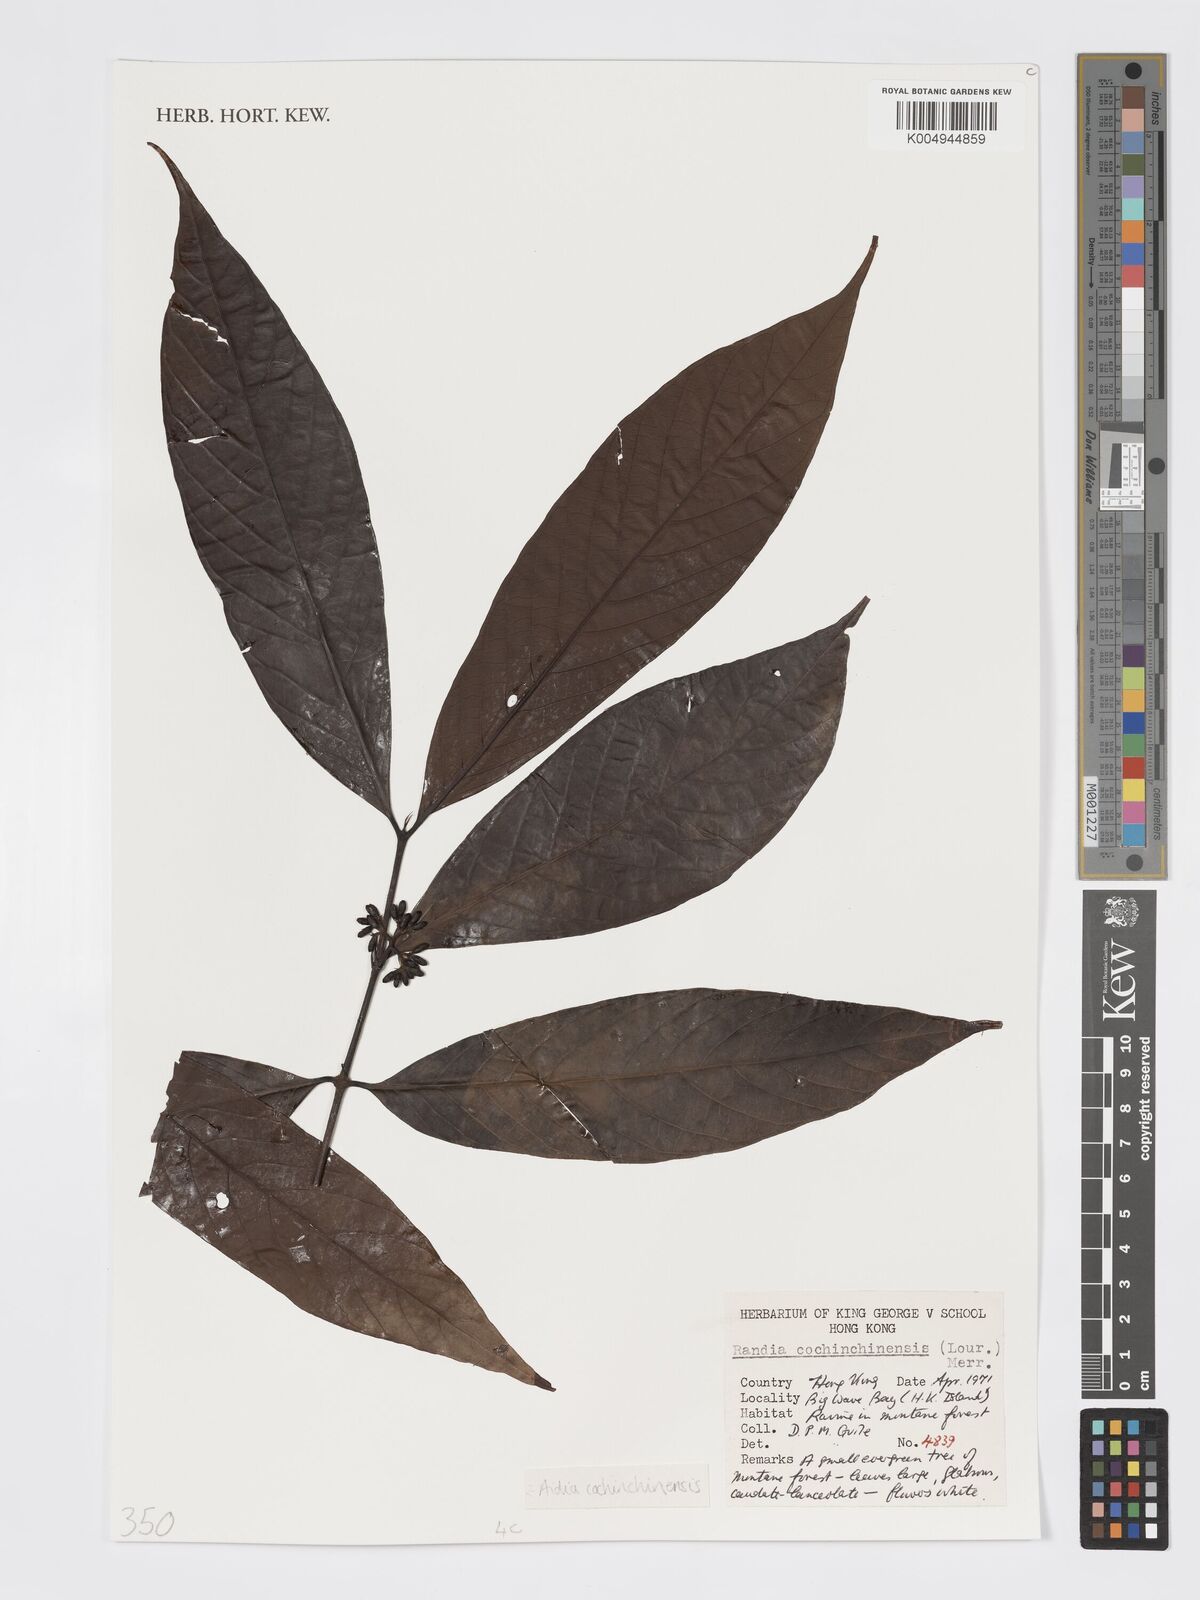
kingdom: Plantae
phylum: Tracheophyta
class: Magnoliopsida
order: Gentianales
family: Rubiaceae
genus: Aidia
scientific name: Aidia canthioides
